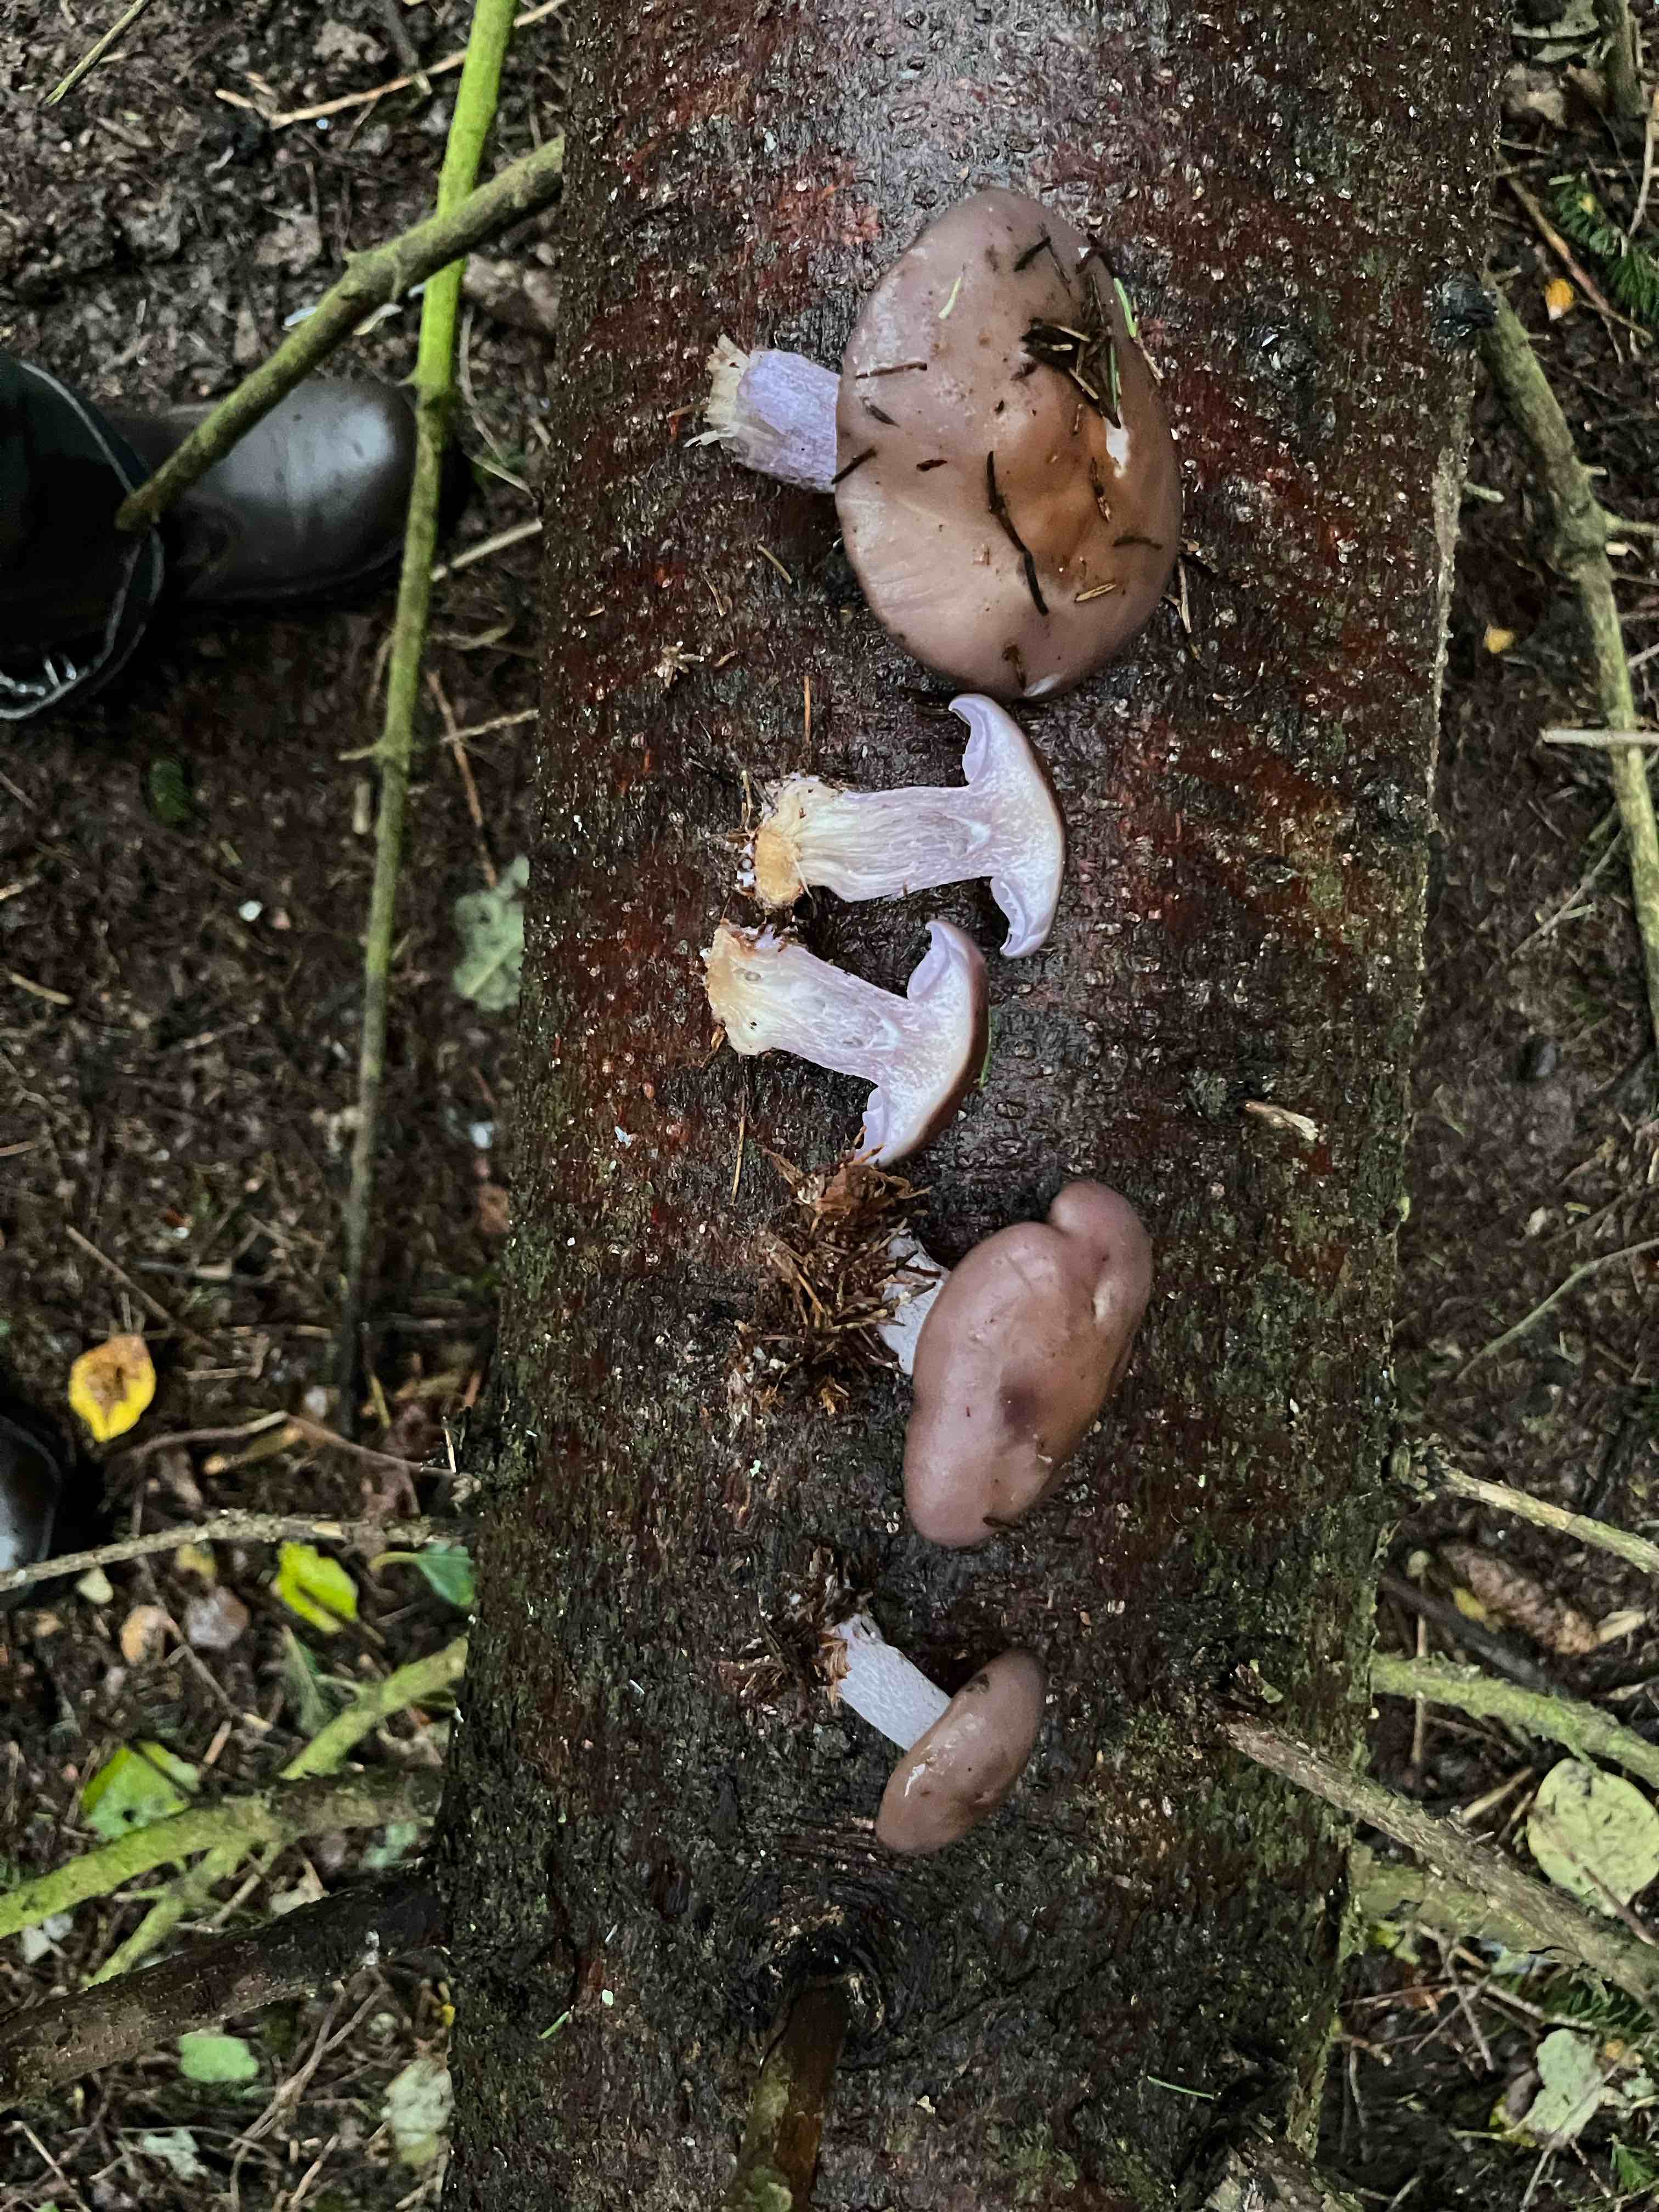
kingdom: Fungi
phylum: Basidiomycota
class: Agaricomycetes
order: Agaricales
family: Tricholomataceae
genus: Lepista
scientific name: Lepista nuda
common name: violet hekseringshat
